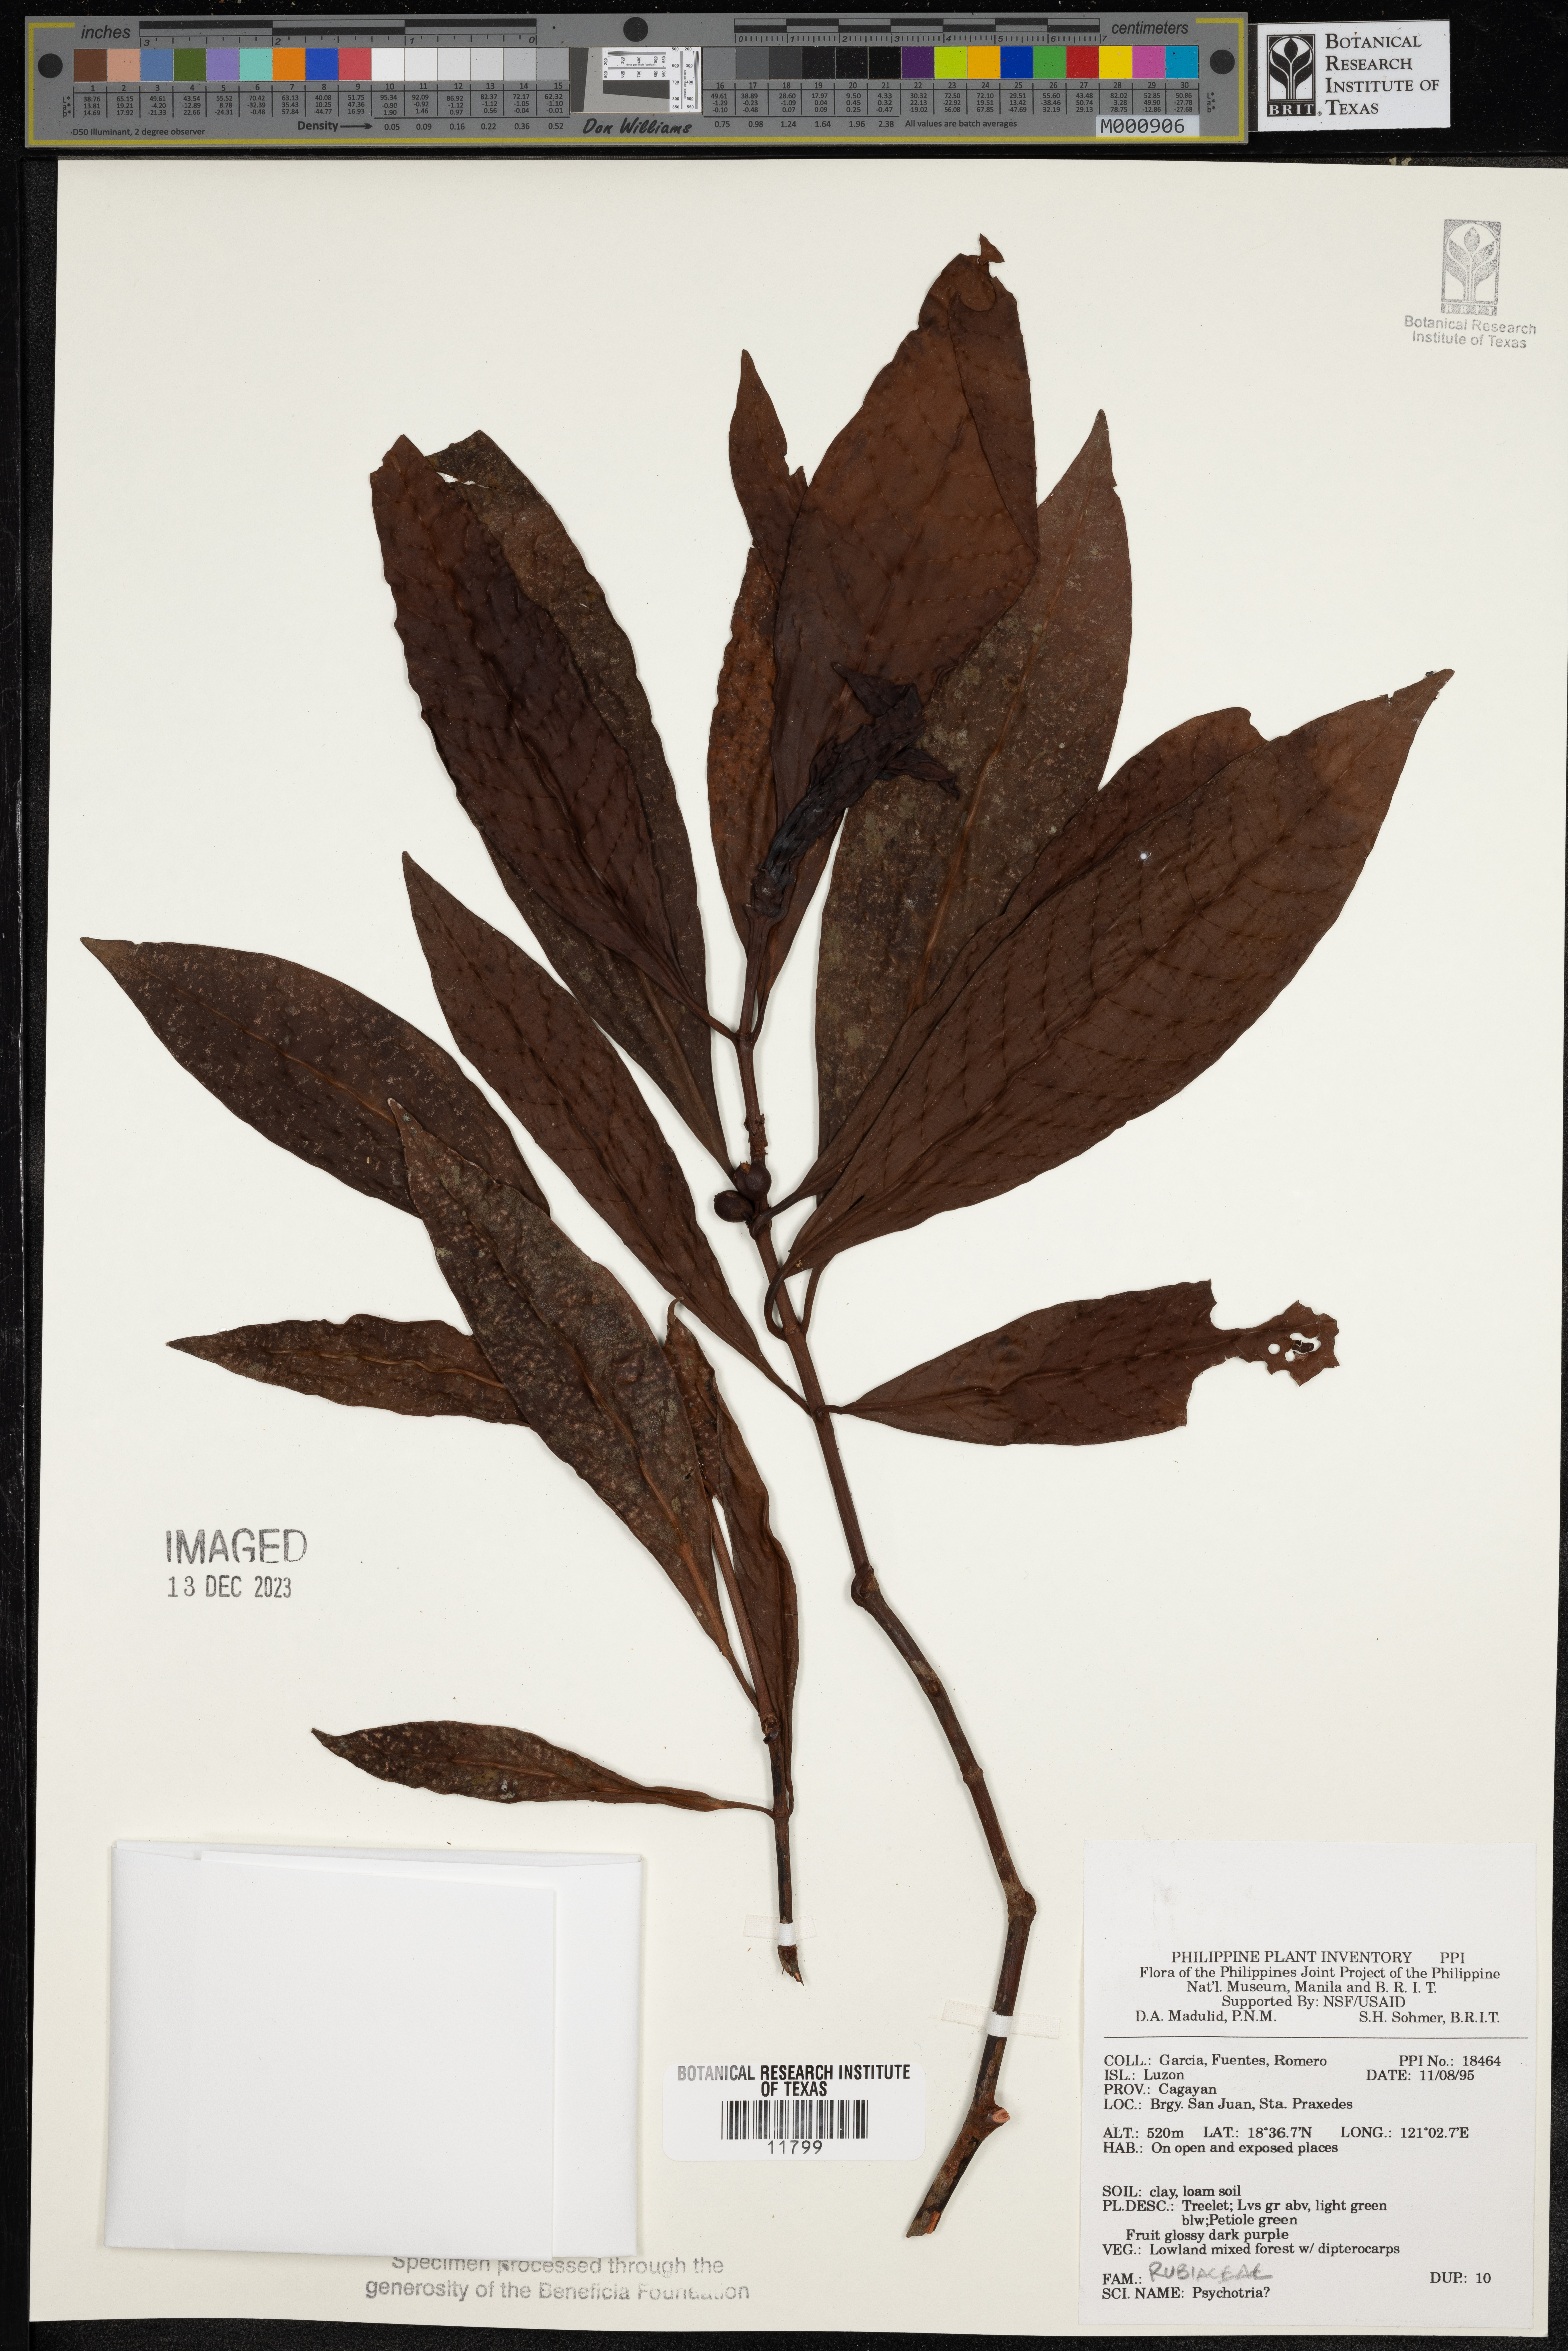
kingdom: Plantae
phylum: Tracheophyta
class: Magnoliopsida
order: Gentianales
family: Rubiaceae
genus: Psychotria
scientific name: Psychotria
